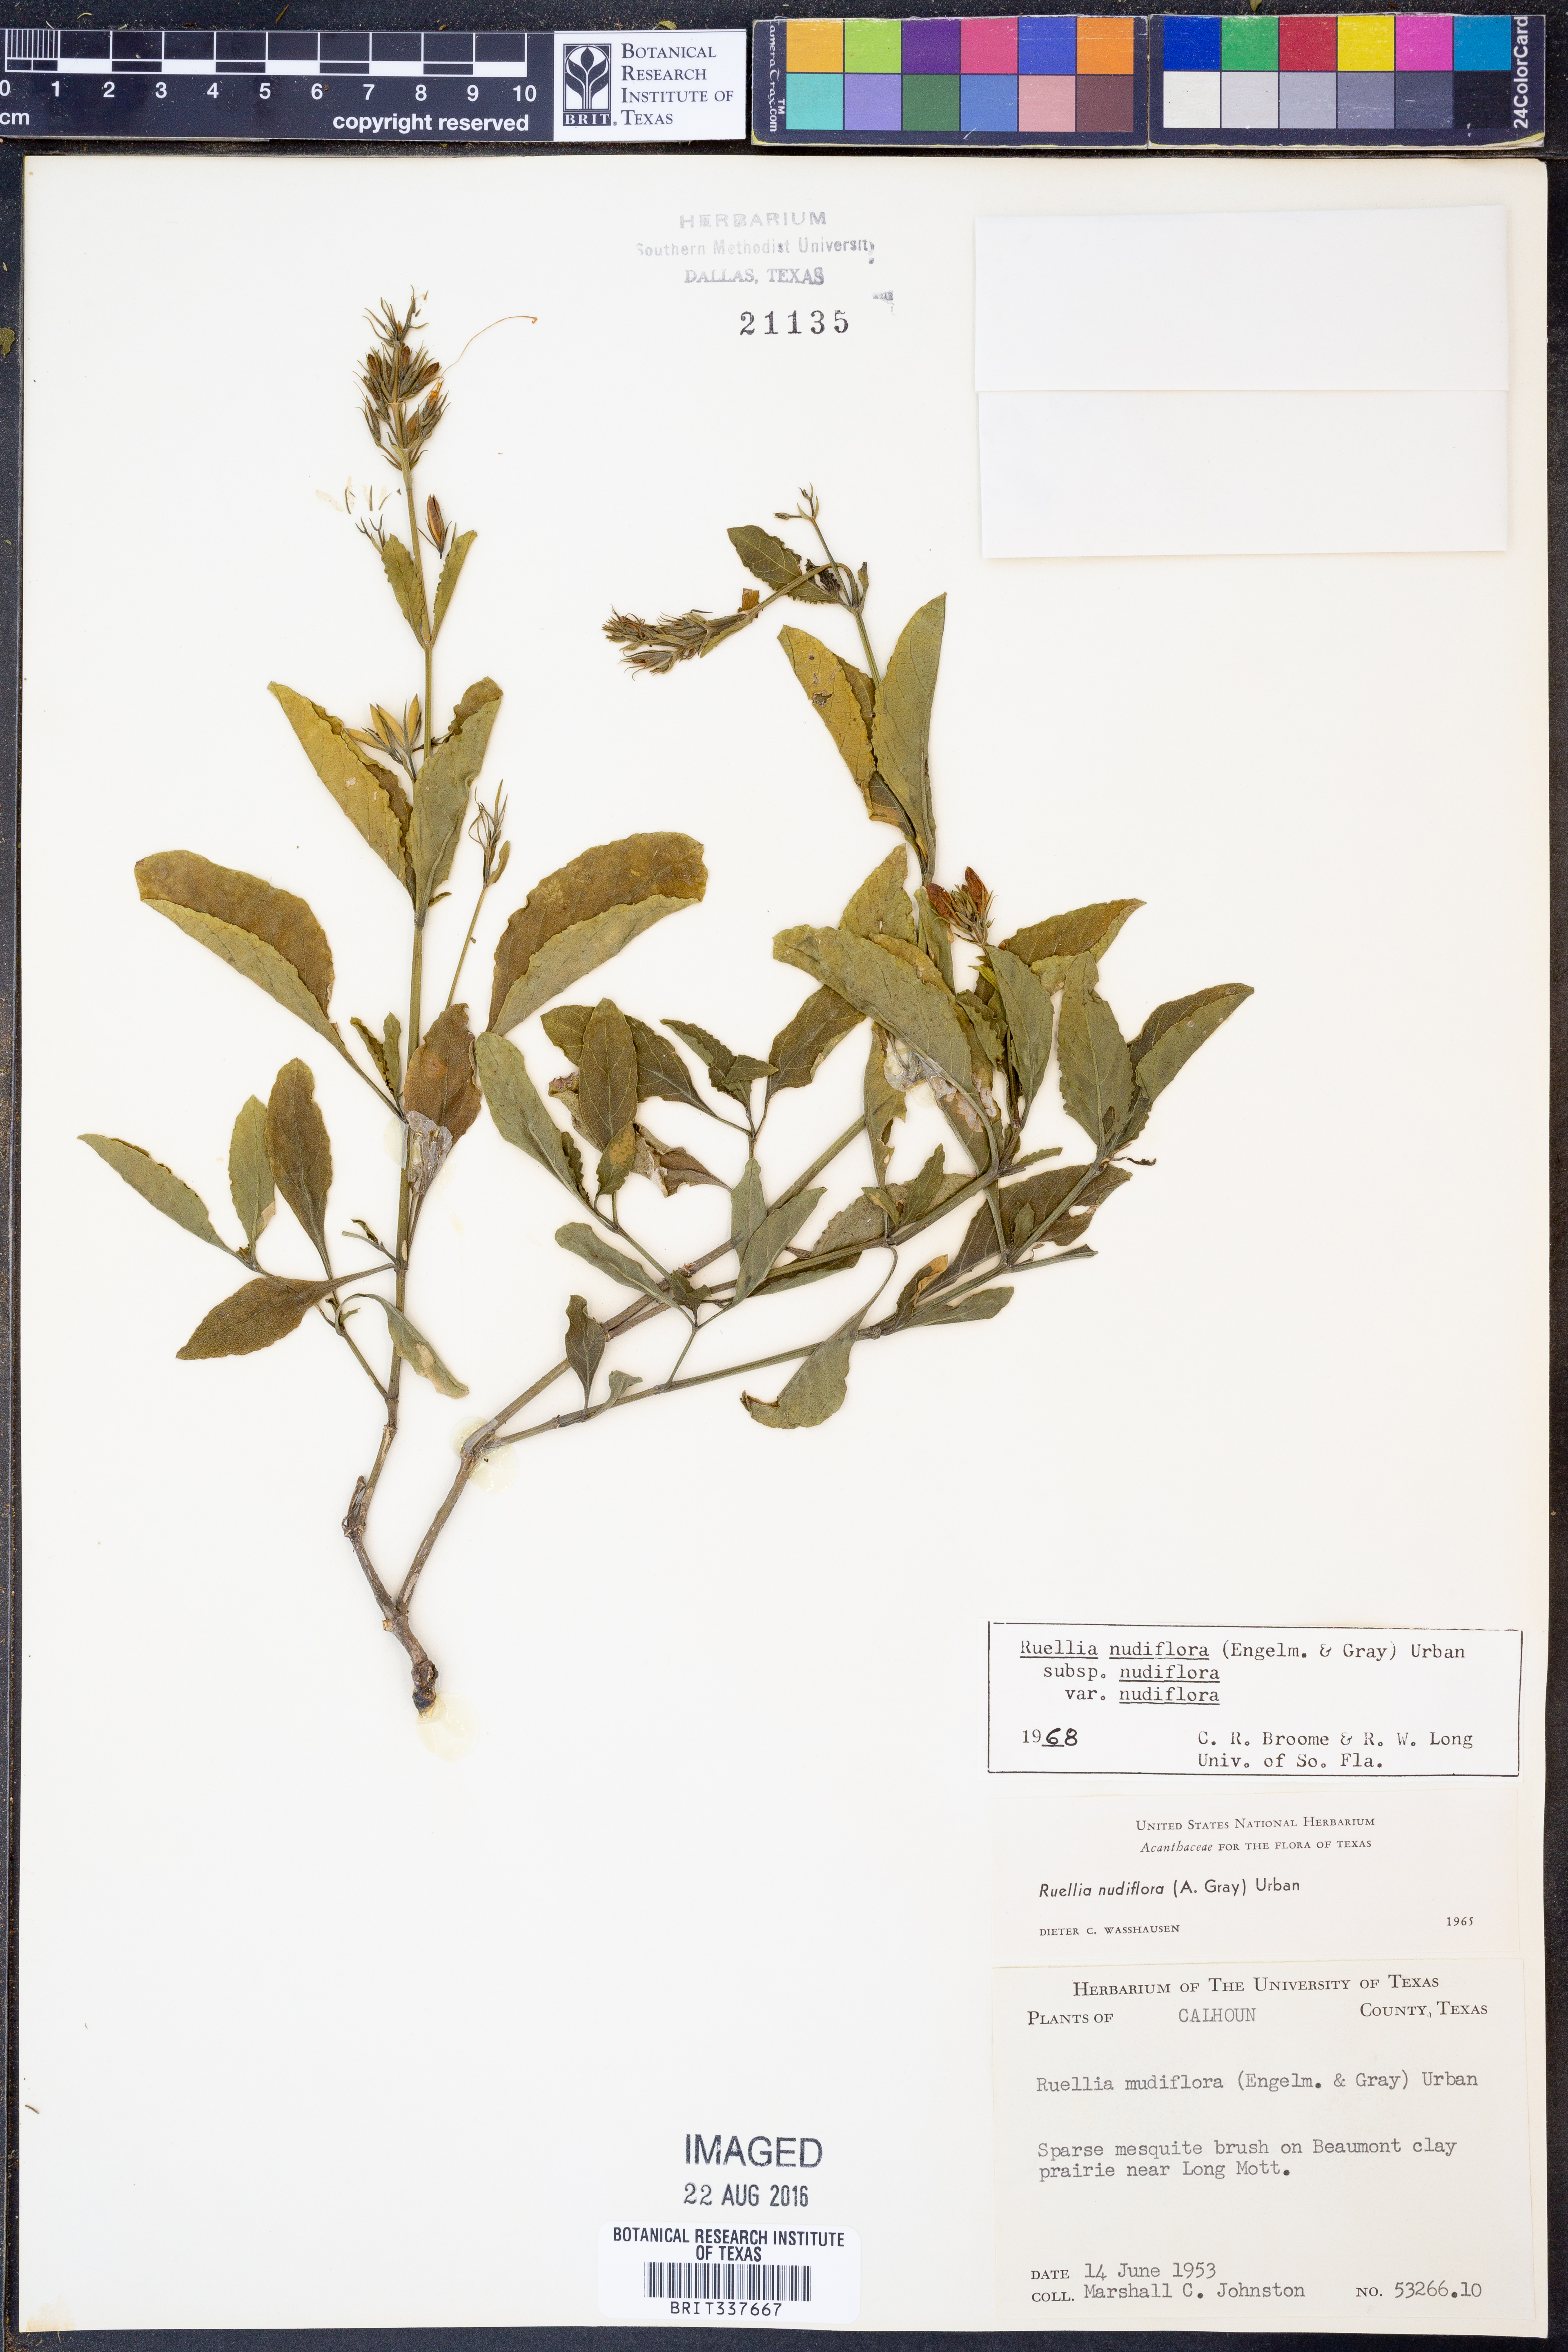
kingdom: Plantae
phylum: Tracheophyta
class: Magnoliopsida
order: Lamiales
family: Acanthaceae
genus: Ruellia
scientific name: Ruellia ciliatiflora
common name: Hairyflower wild petunia
